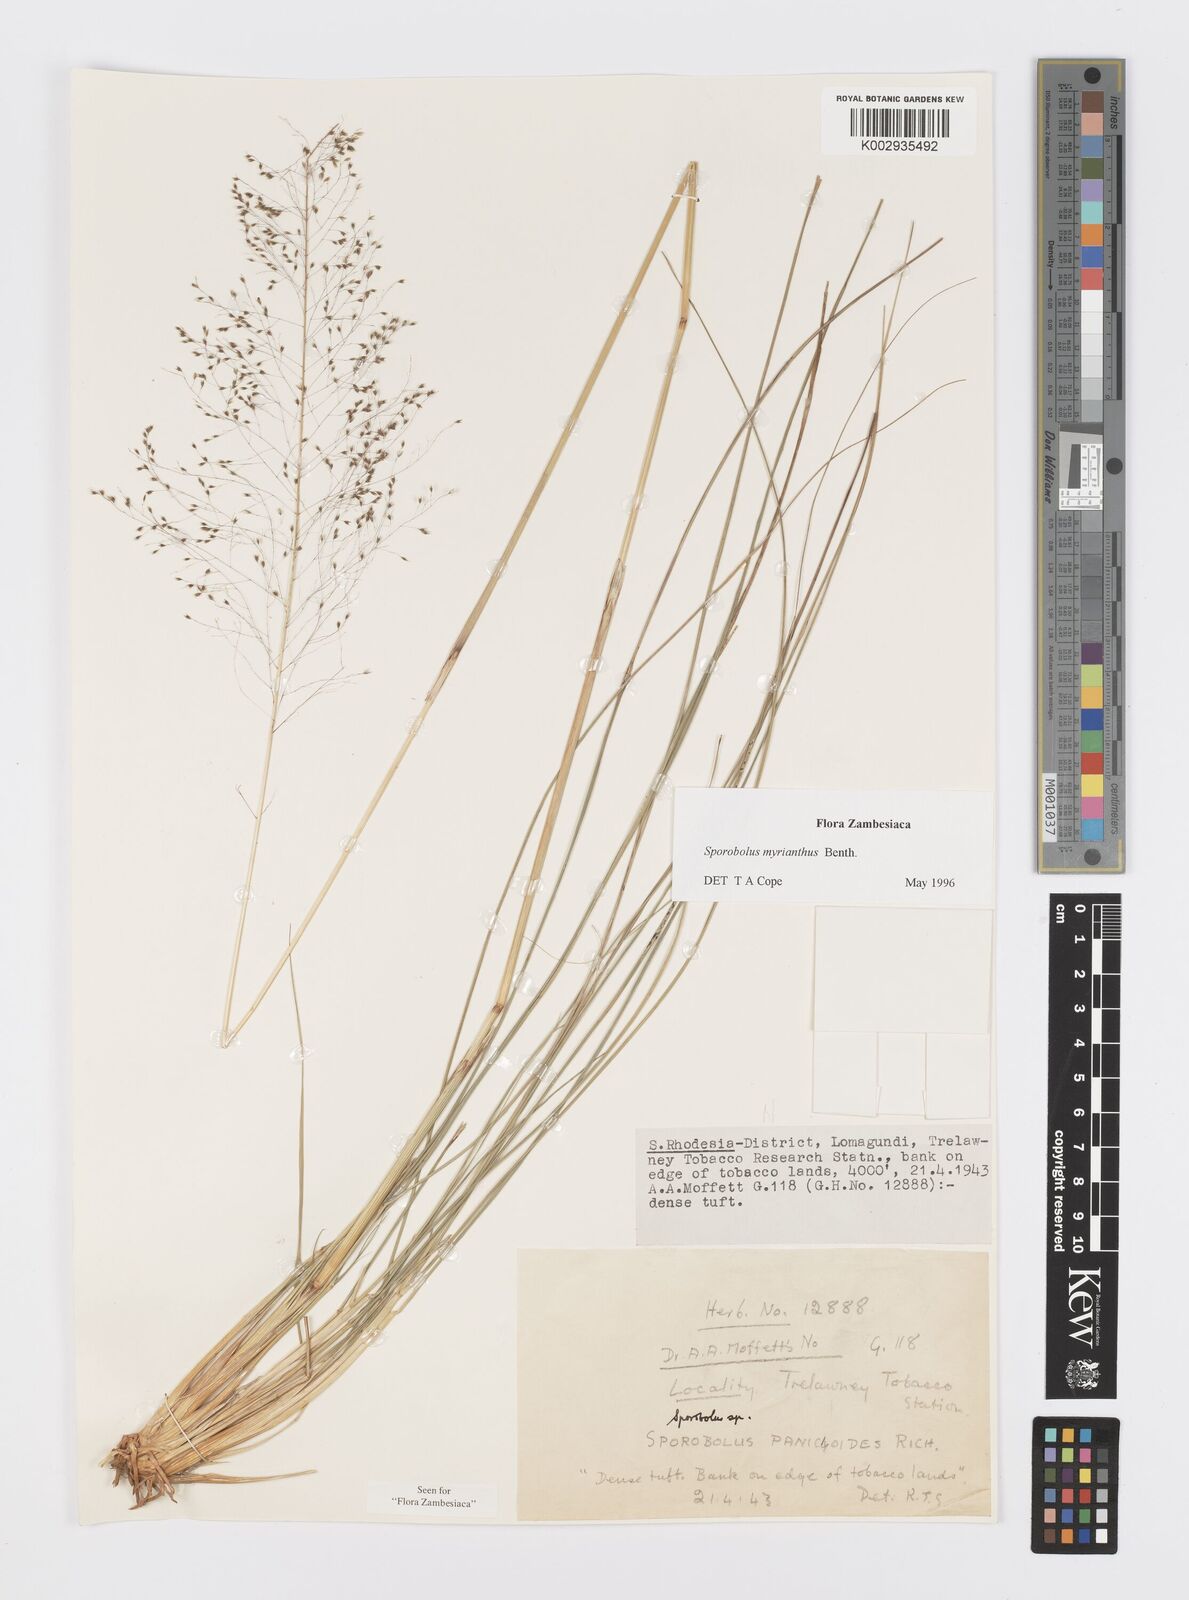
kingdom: Plantae
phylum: Tracheophyta
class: Liliopsida
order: Poales
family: Poaceae
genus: Sporobolus
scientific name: Sporobolus myrianthus
